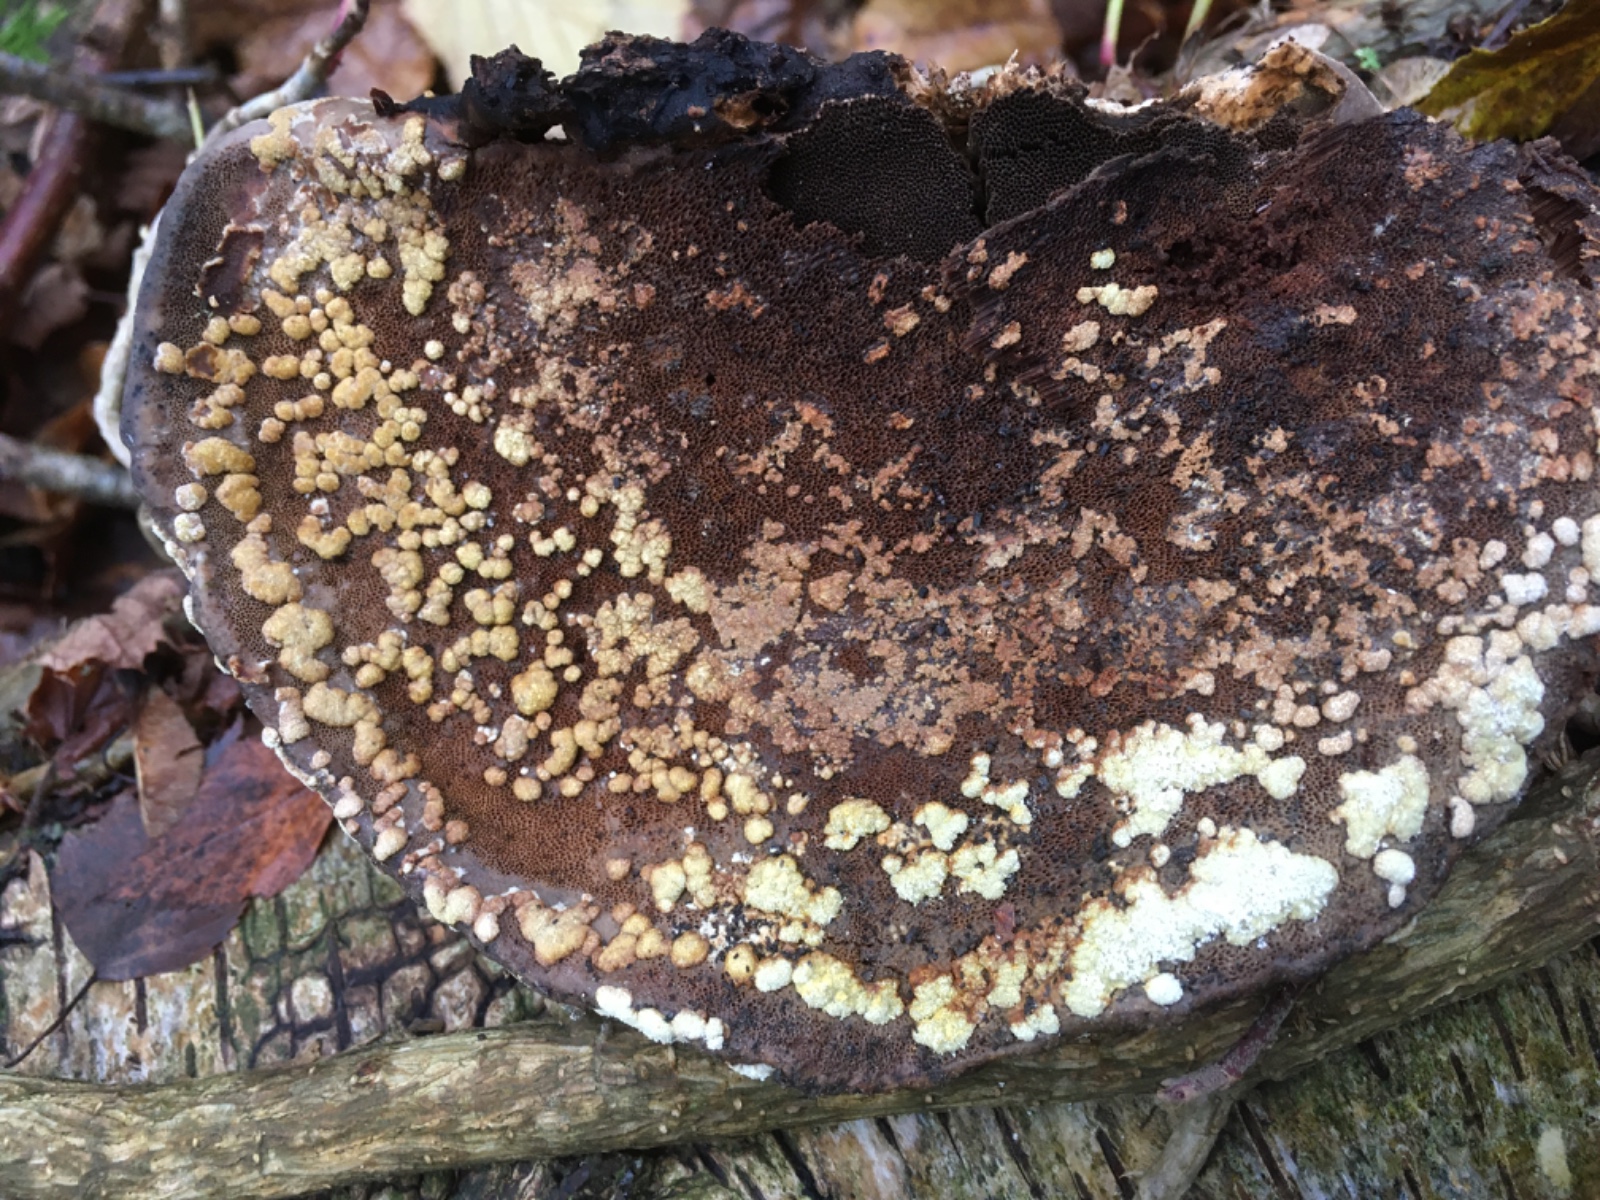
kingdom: Fungi
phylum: Ascomycota
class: Sordariomycetes
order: Hypocreales
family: Hypocreaceae
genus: Trichoderma
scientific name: Trichoderma pulvinatum
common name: snyltende kødkerne
